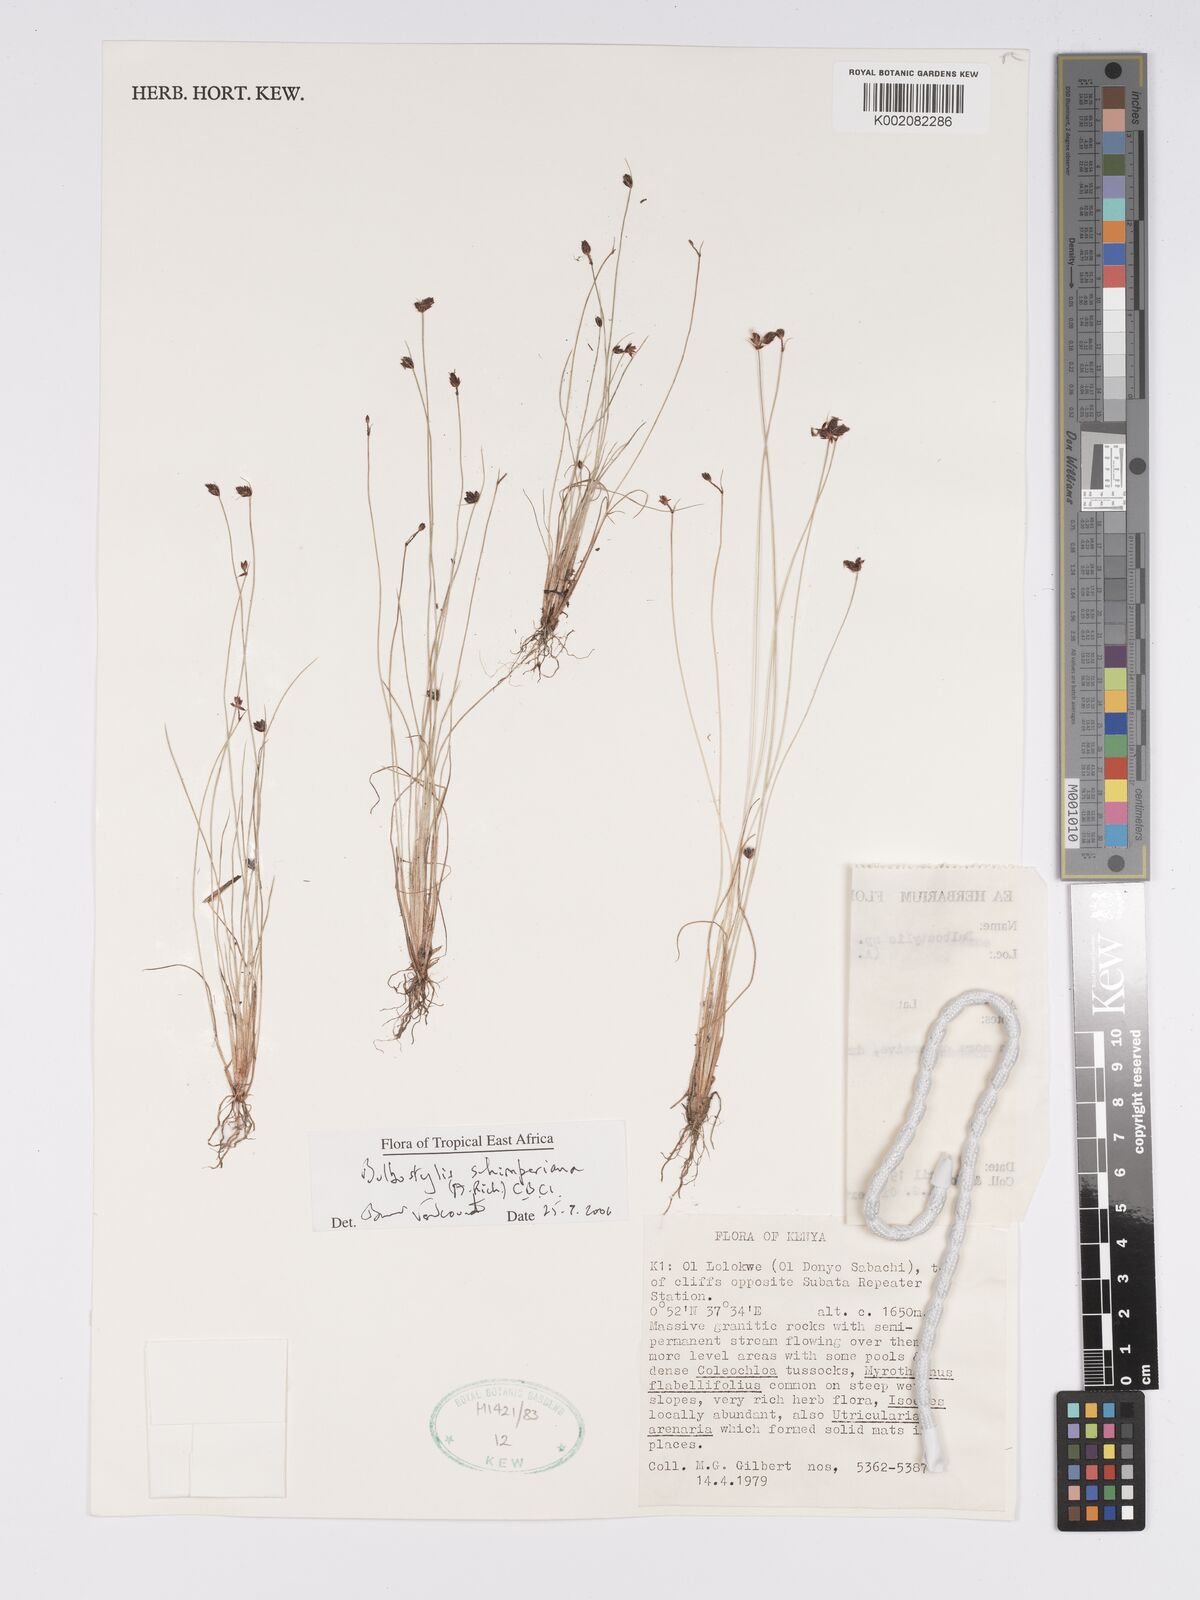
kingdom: Plantae
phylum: Tracheophyta
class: Liliopsida
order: Poales
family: Cyperaceae
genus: Bulbostylis
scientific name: Bulbostylis schimperiana
